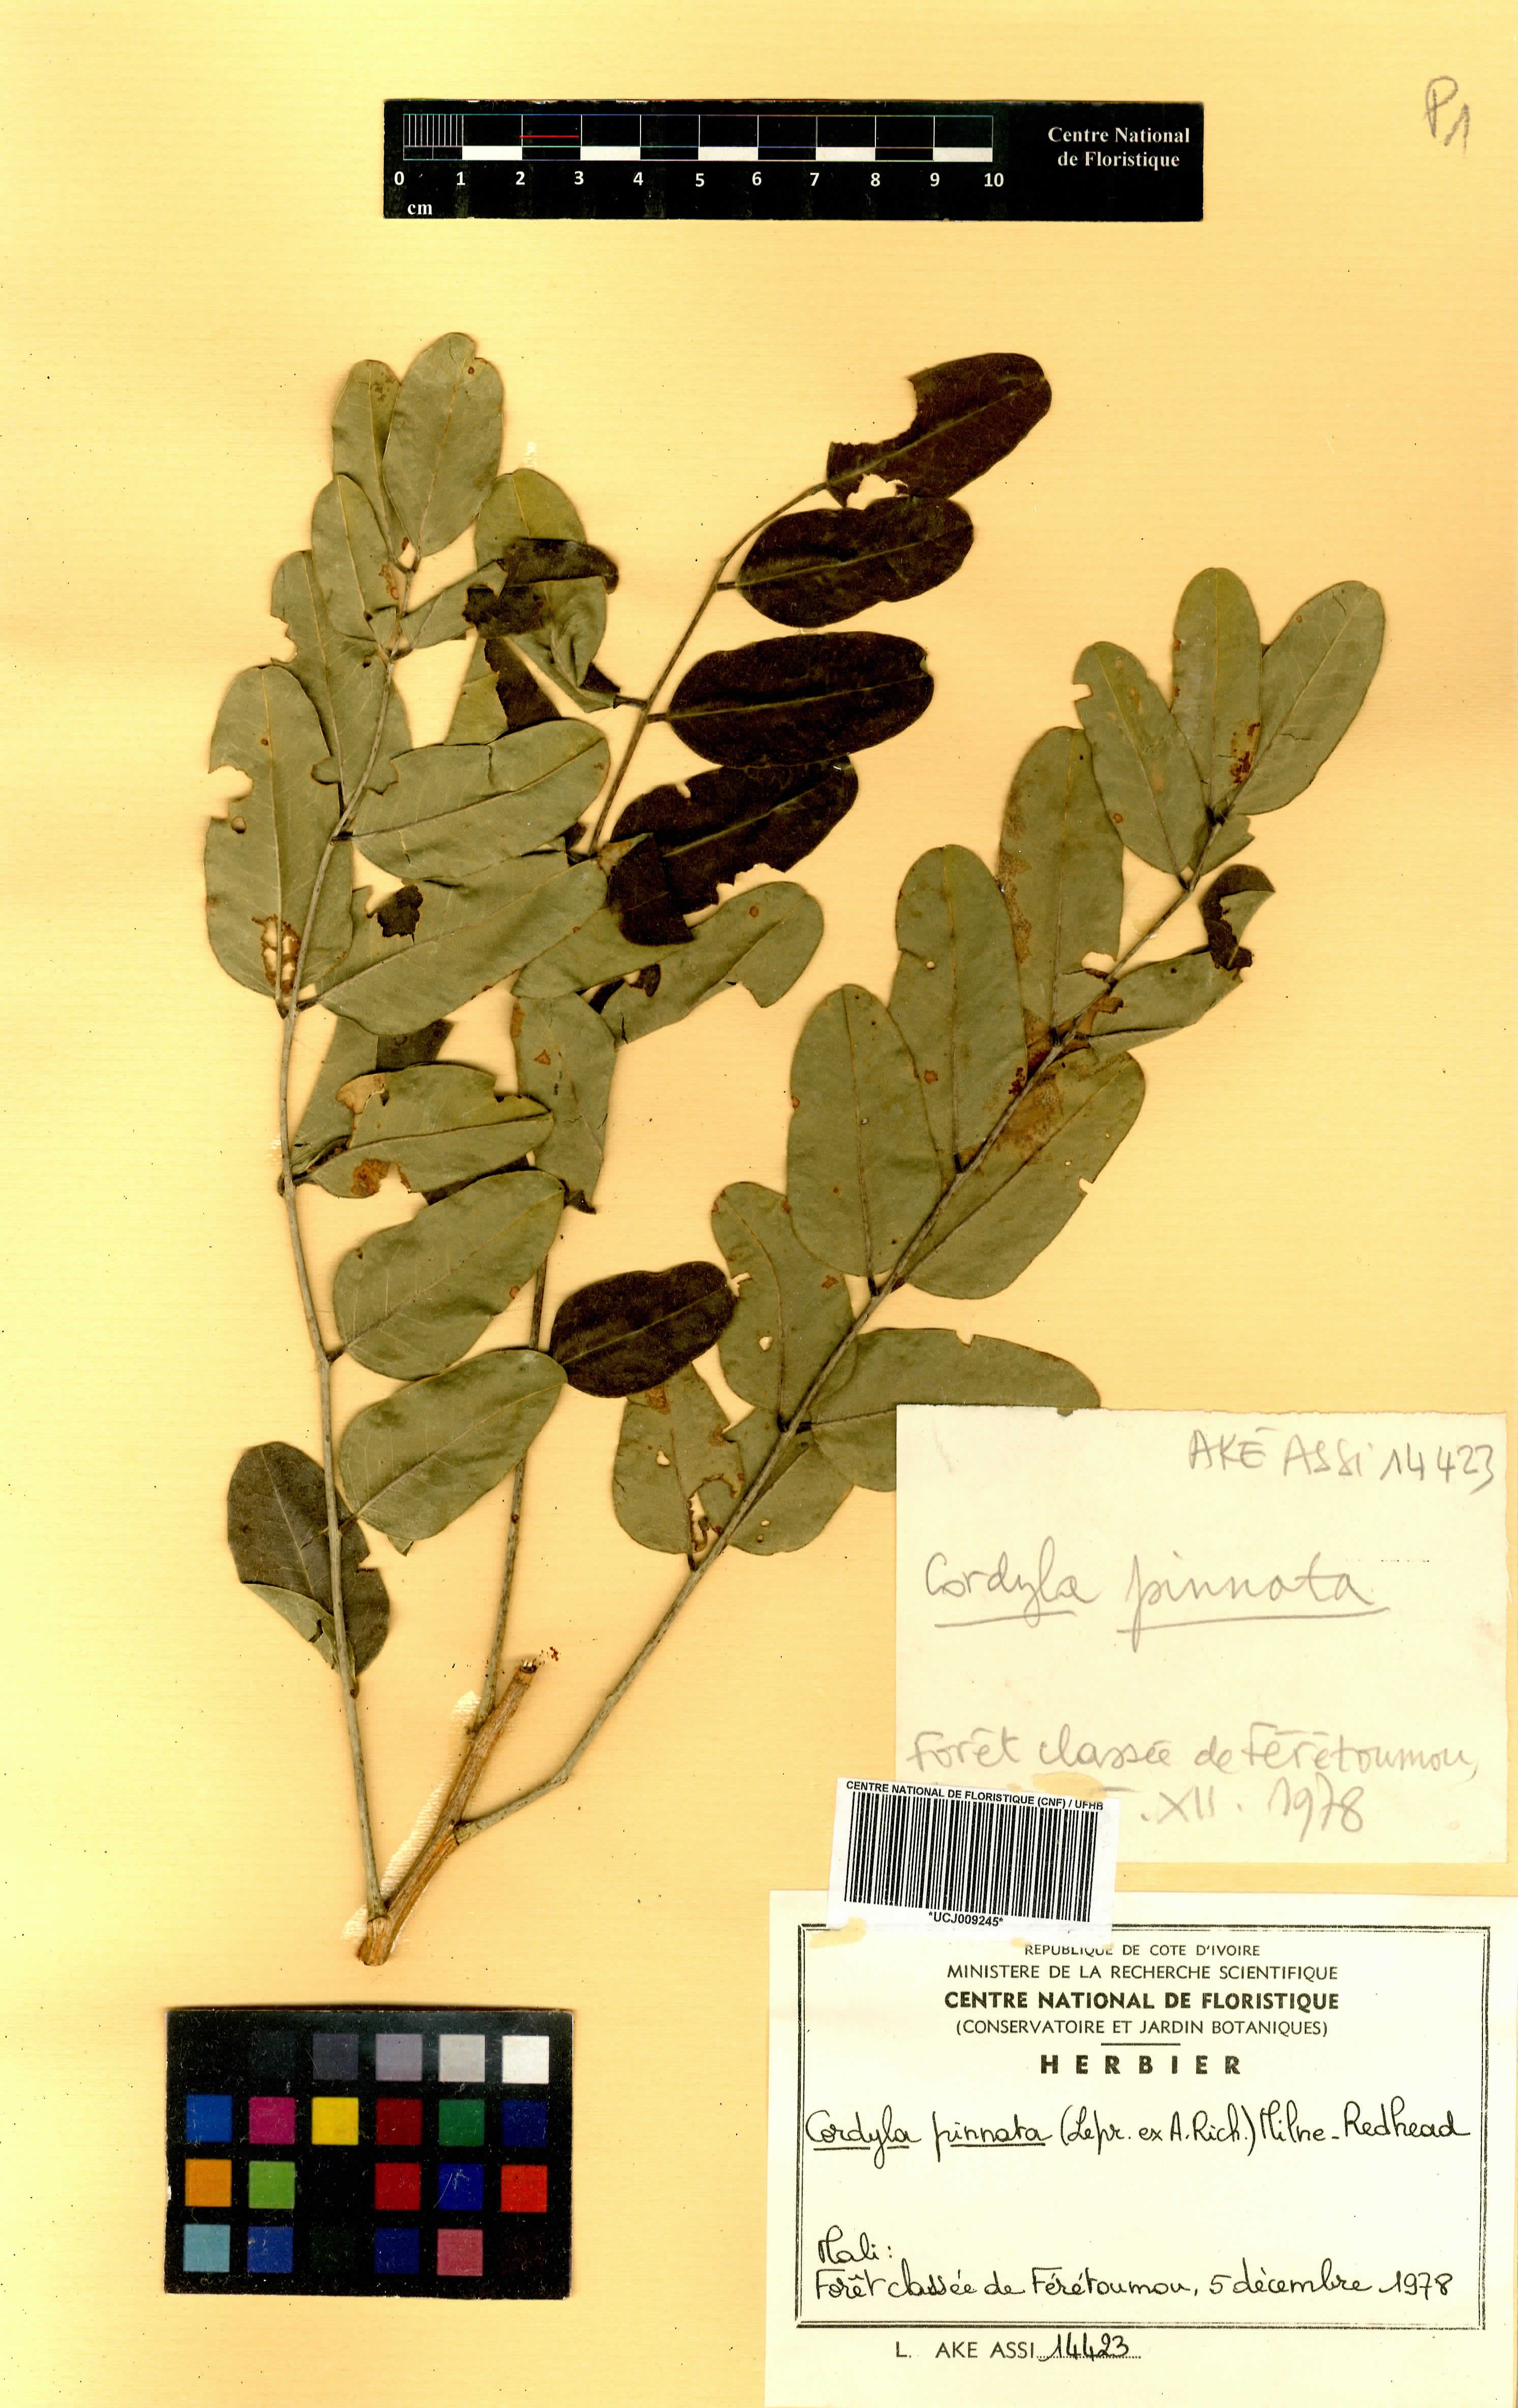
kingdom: Plantae
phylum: Tracheophyta
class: Magnoliopsida
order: Fabales
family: Fabaceae
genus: Cordyla
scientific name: Cordyla pinnata
